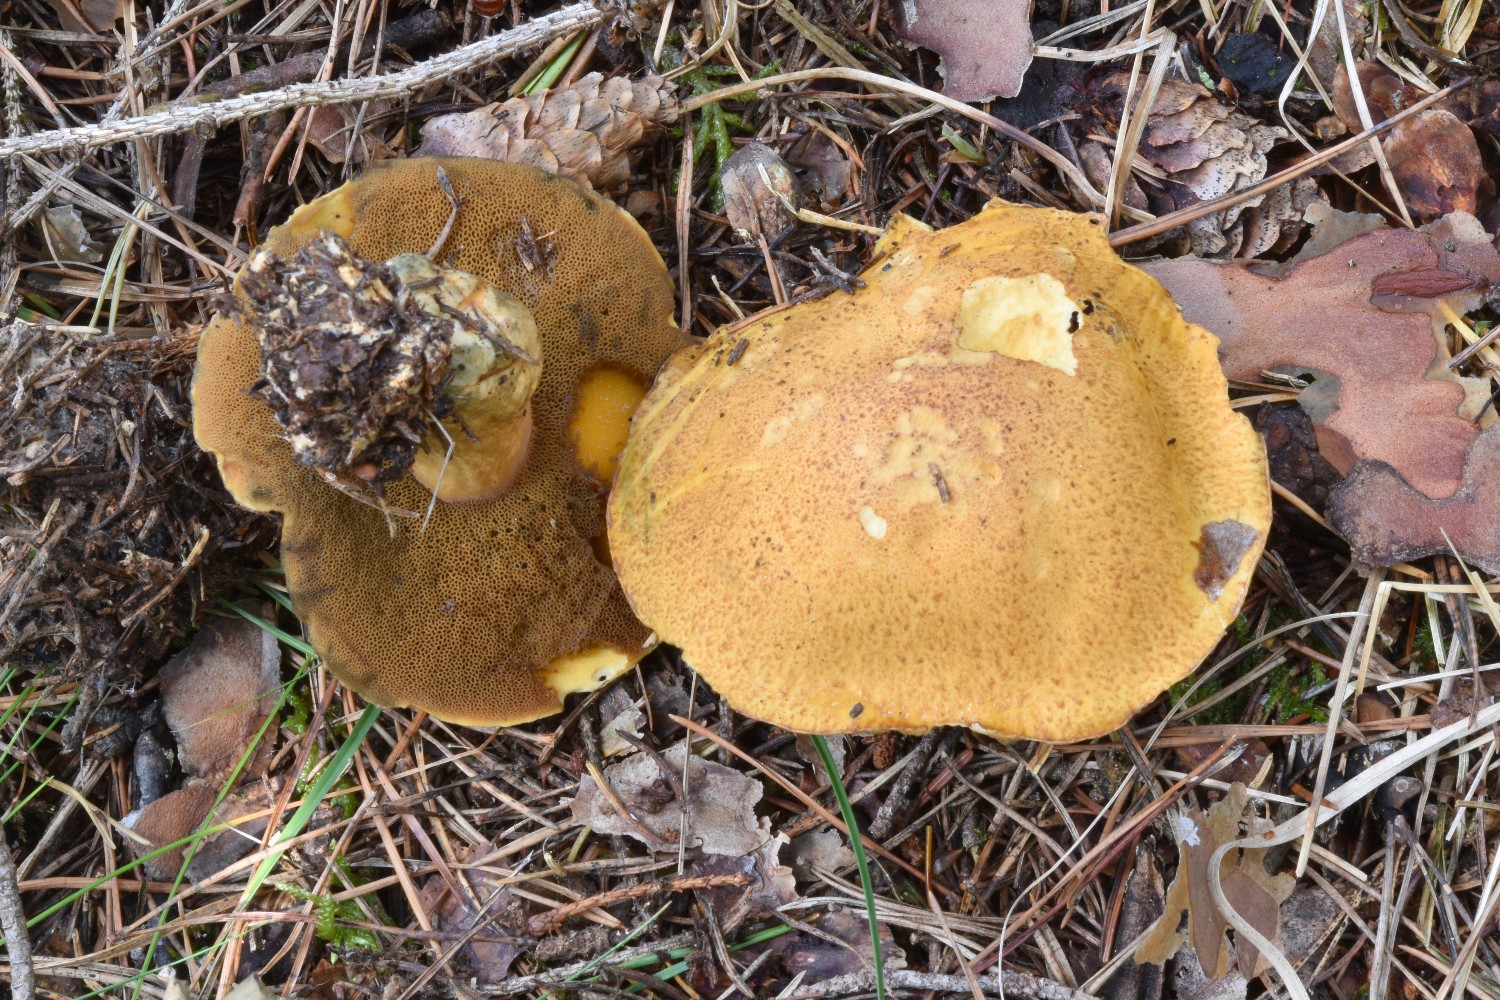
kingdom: Fungi
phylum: Basidiomycota
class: Agaricomycetes
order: Boletales
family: Suillaceae
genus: Suillus
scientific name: Suillus variegatus
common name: broget slimrørhat
